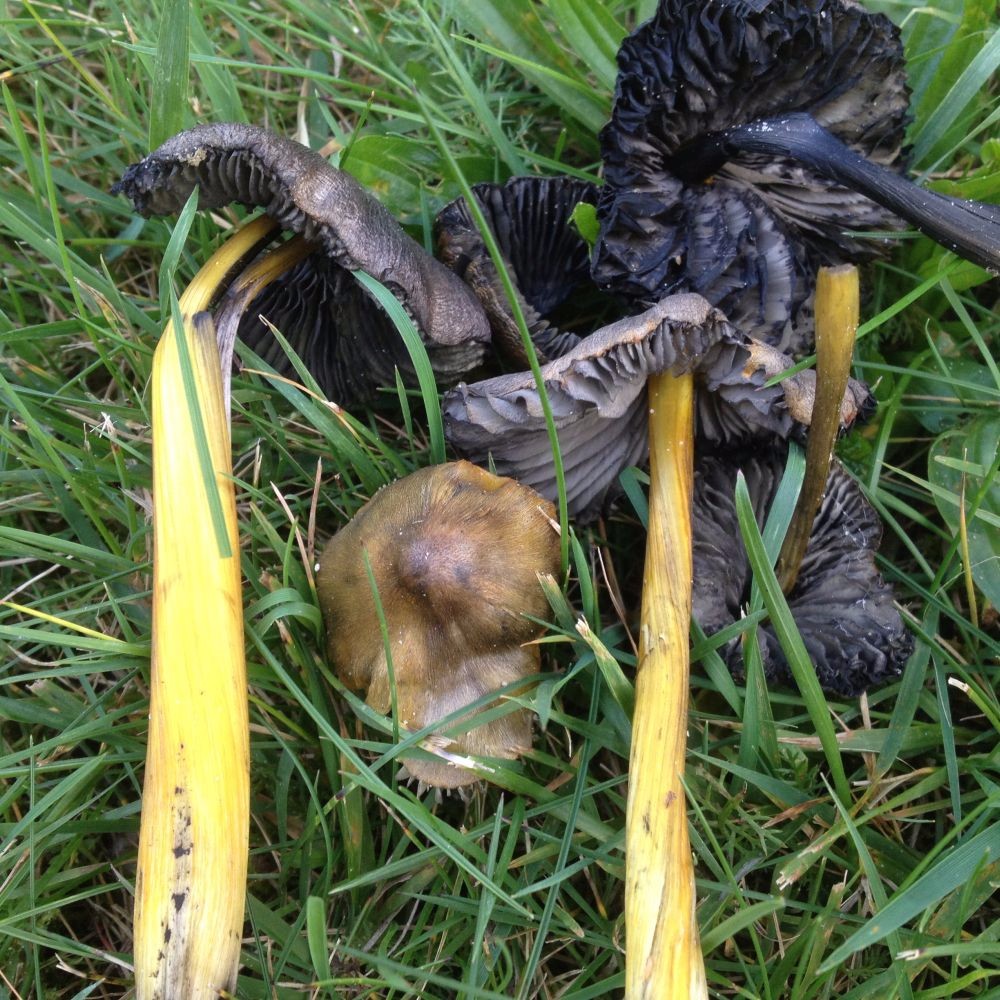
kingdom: Fungi
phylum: Basidiomycota
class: Agaricomycetes
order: Agaricales
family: Hygrophoraceae
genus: Hygrocybe
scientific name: Hygrocybe conica
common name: kegle-vokshat
